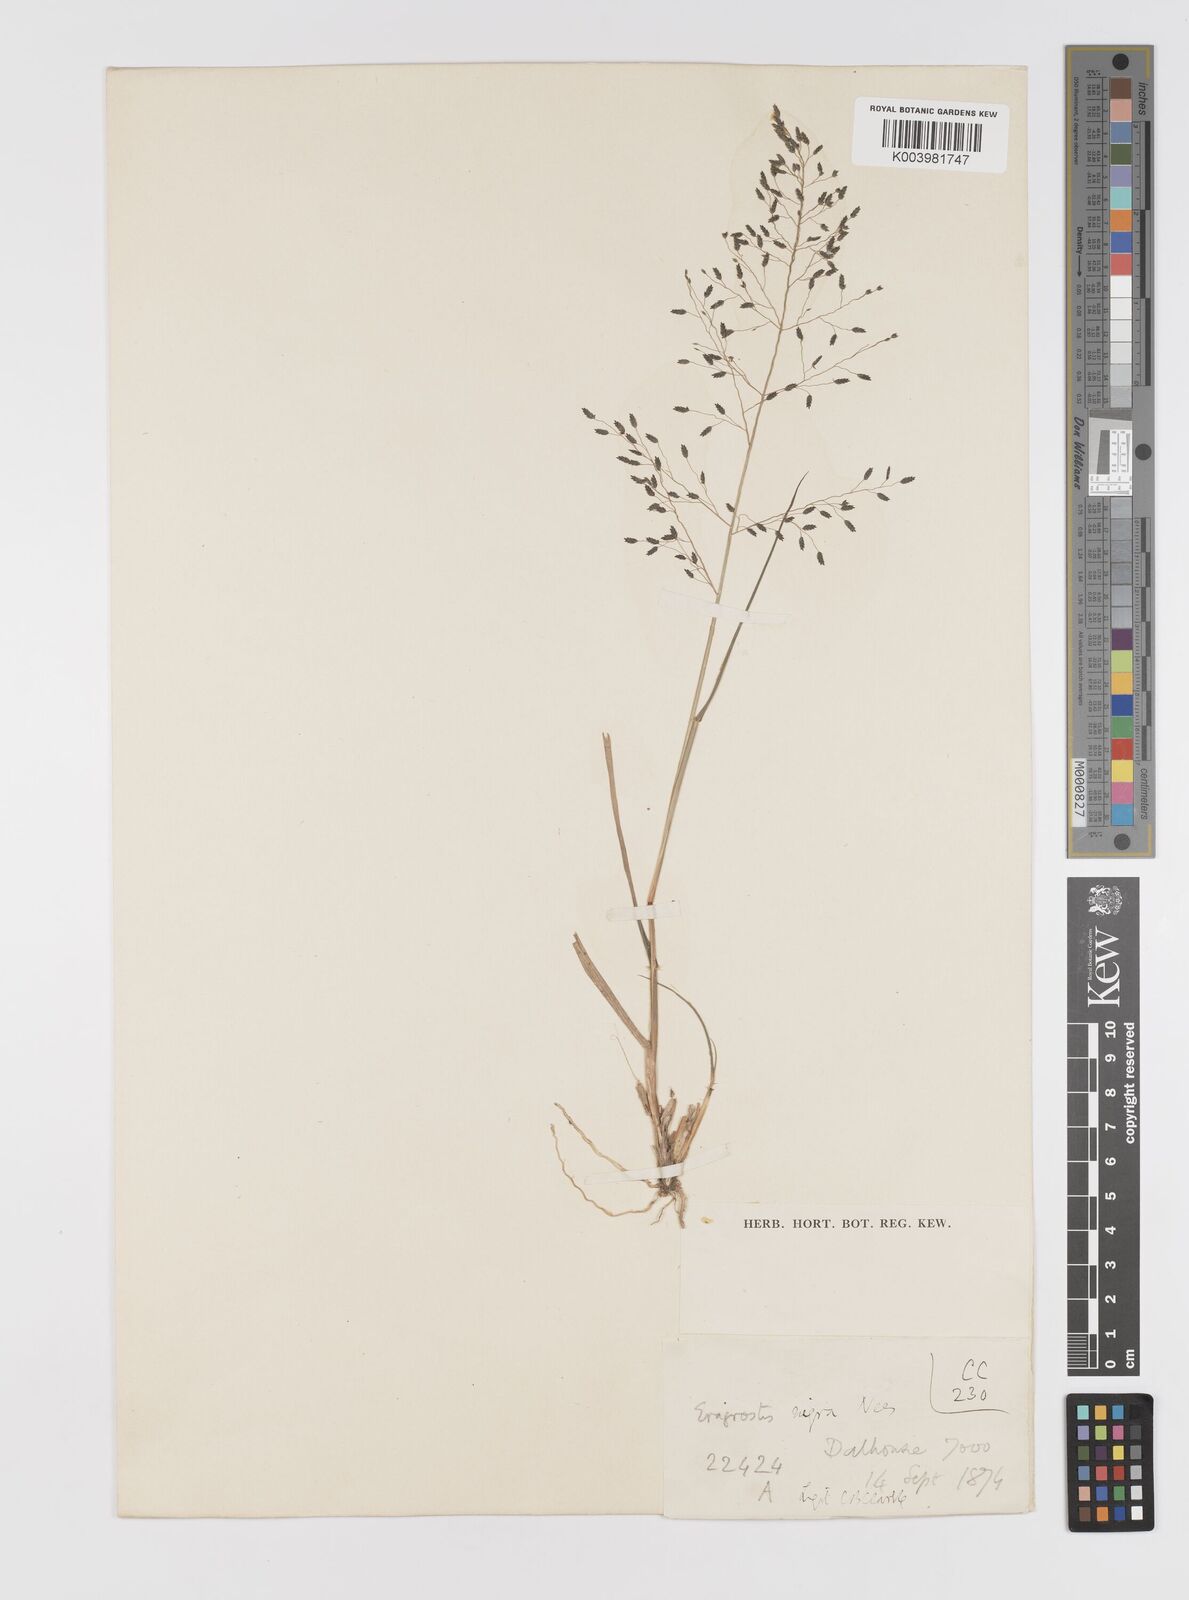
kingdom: Plantae
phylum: Tracheophyta
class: Liliopsida
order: Poales
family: Poaceae
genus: Eragrostis
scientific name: Eragrostis nigra
